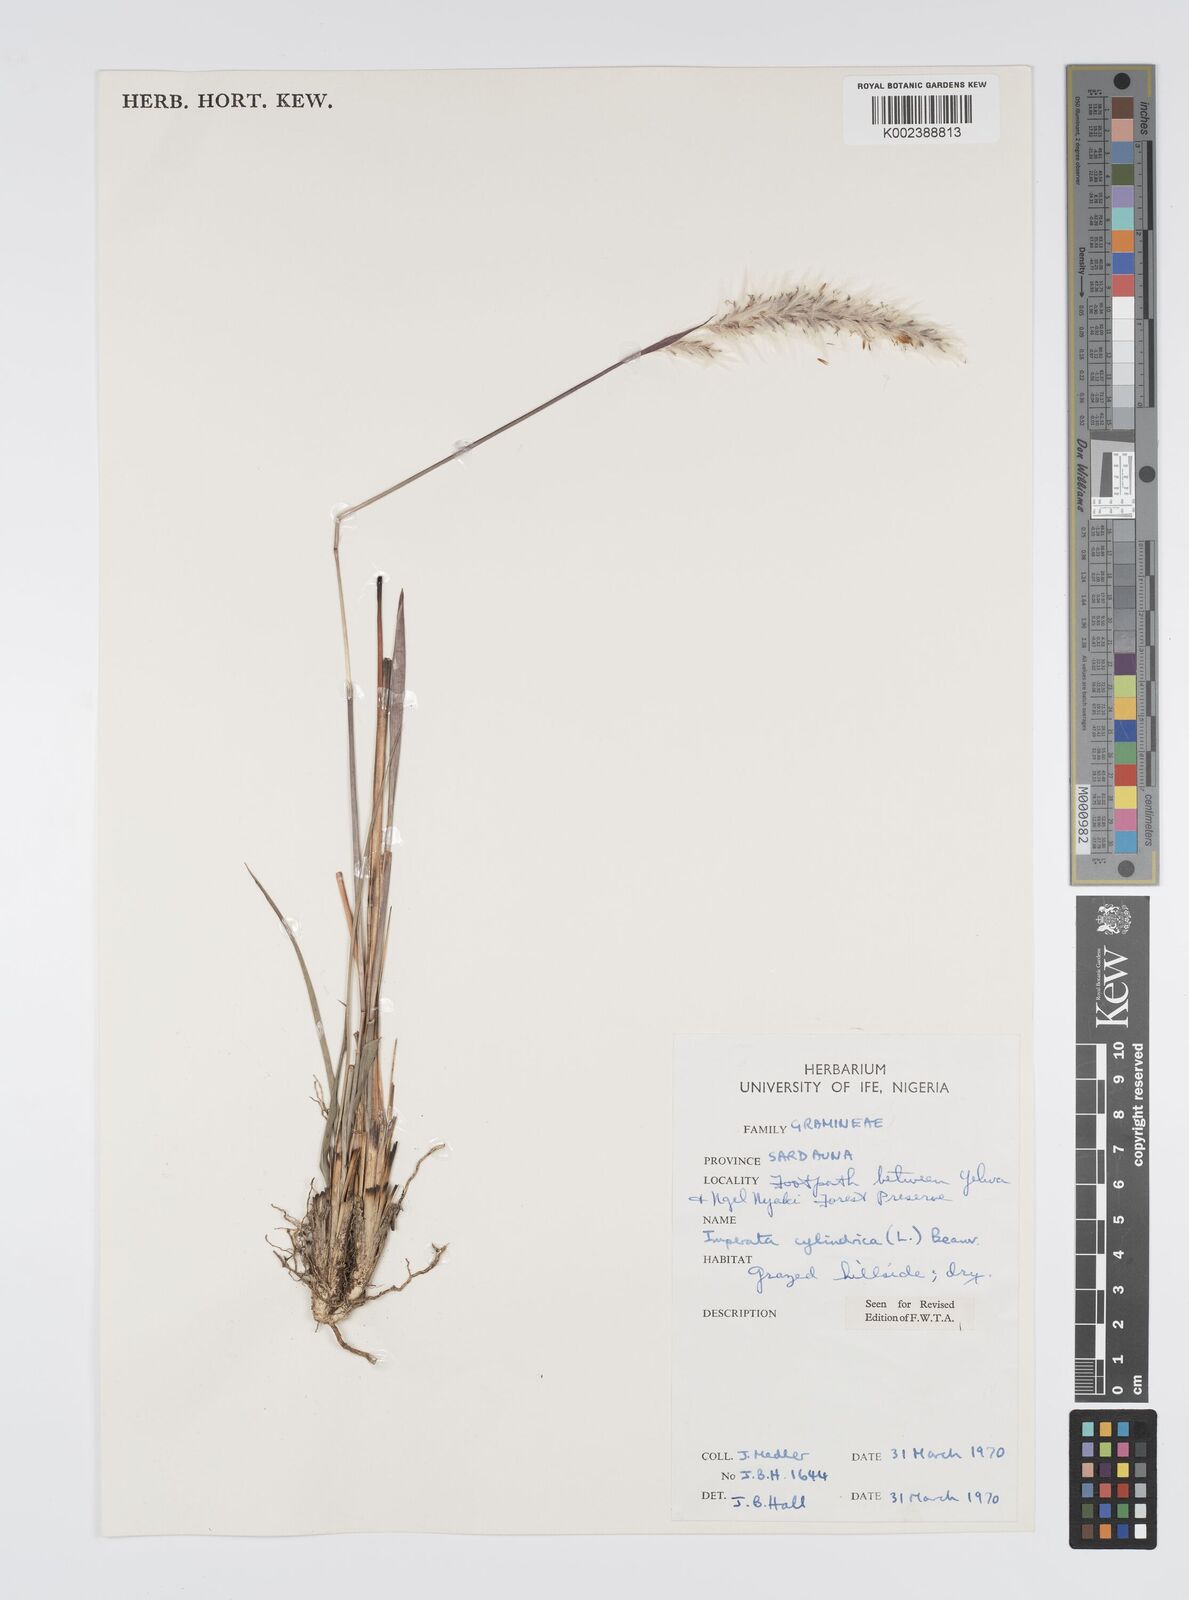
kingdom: Plantae
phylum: Tracheophyta
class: Liliopsida
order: Poales
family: Poaceae
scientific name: Poaceae
